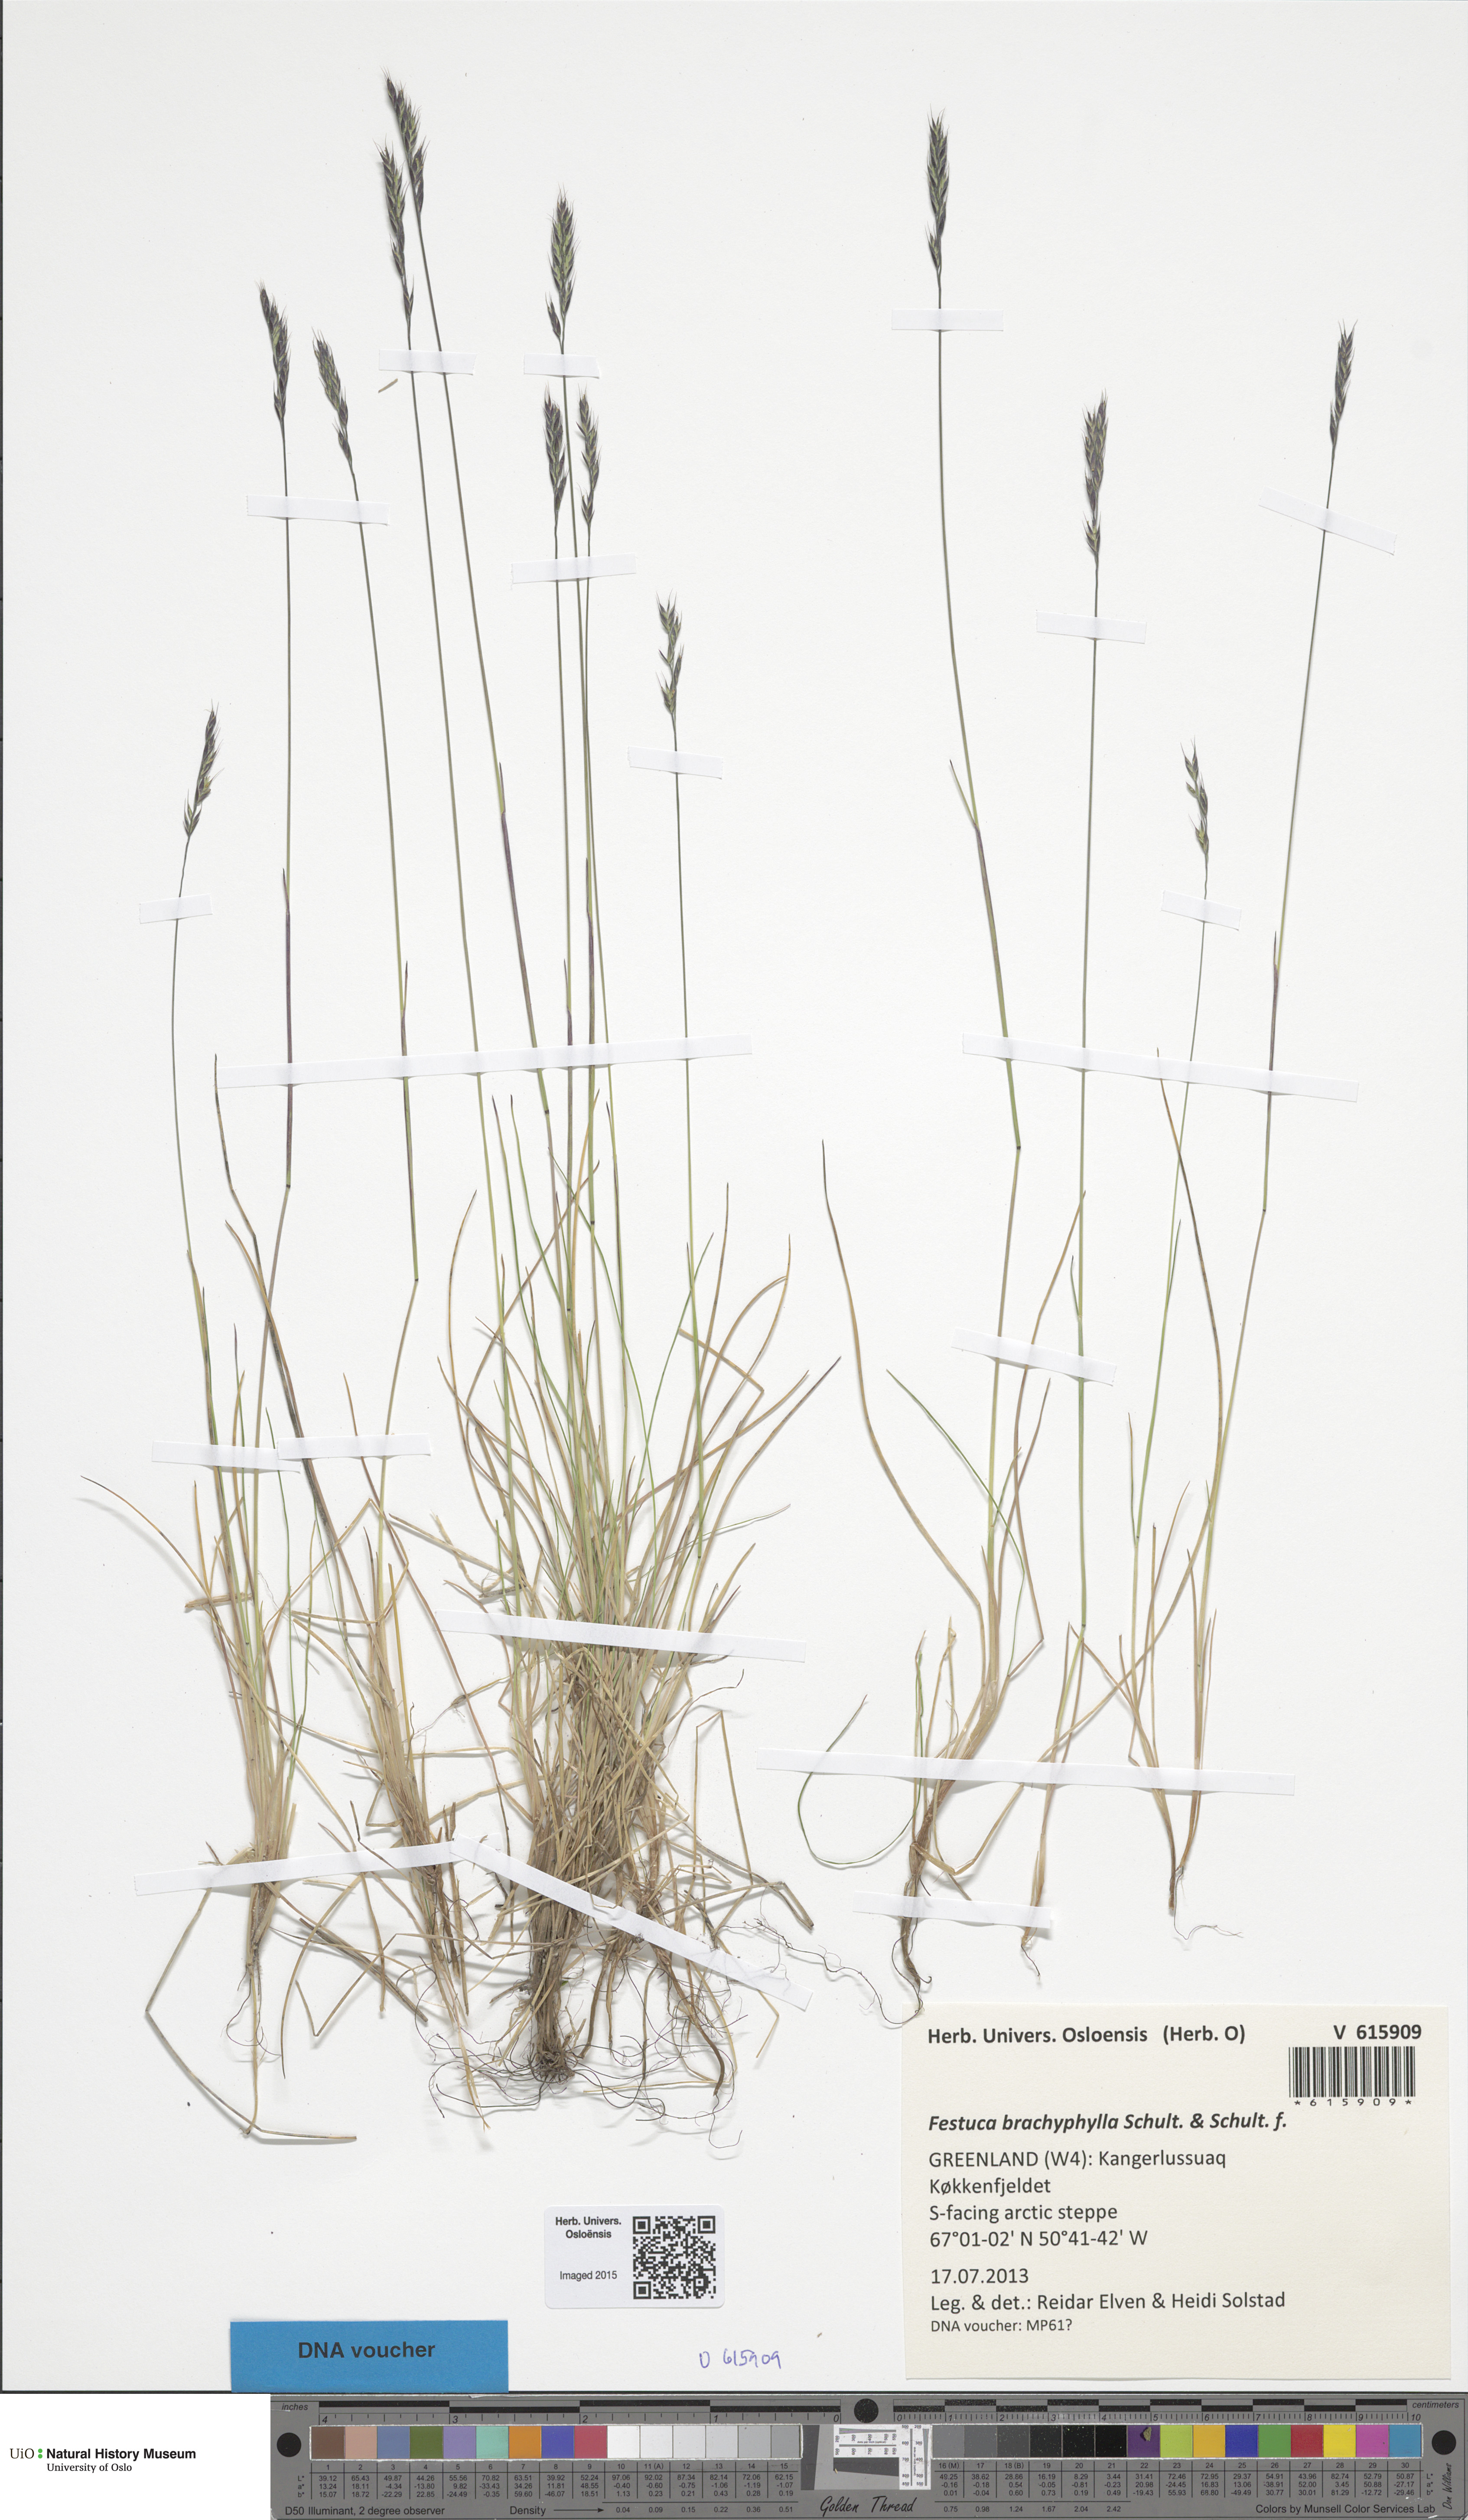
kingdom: Plantae
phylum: Tracheophyta
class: Liliopsida
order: Poales
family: Poaceae
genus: Festuca
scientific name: Festuca brachyphylla
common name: Alpine fescue
